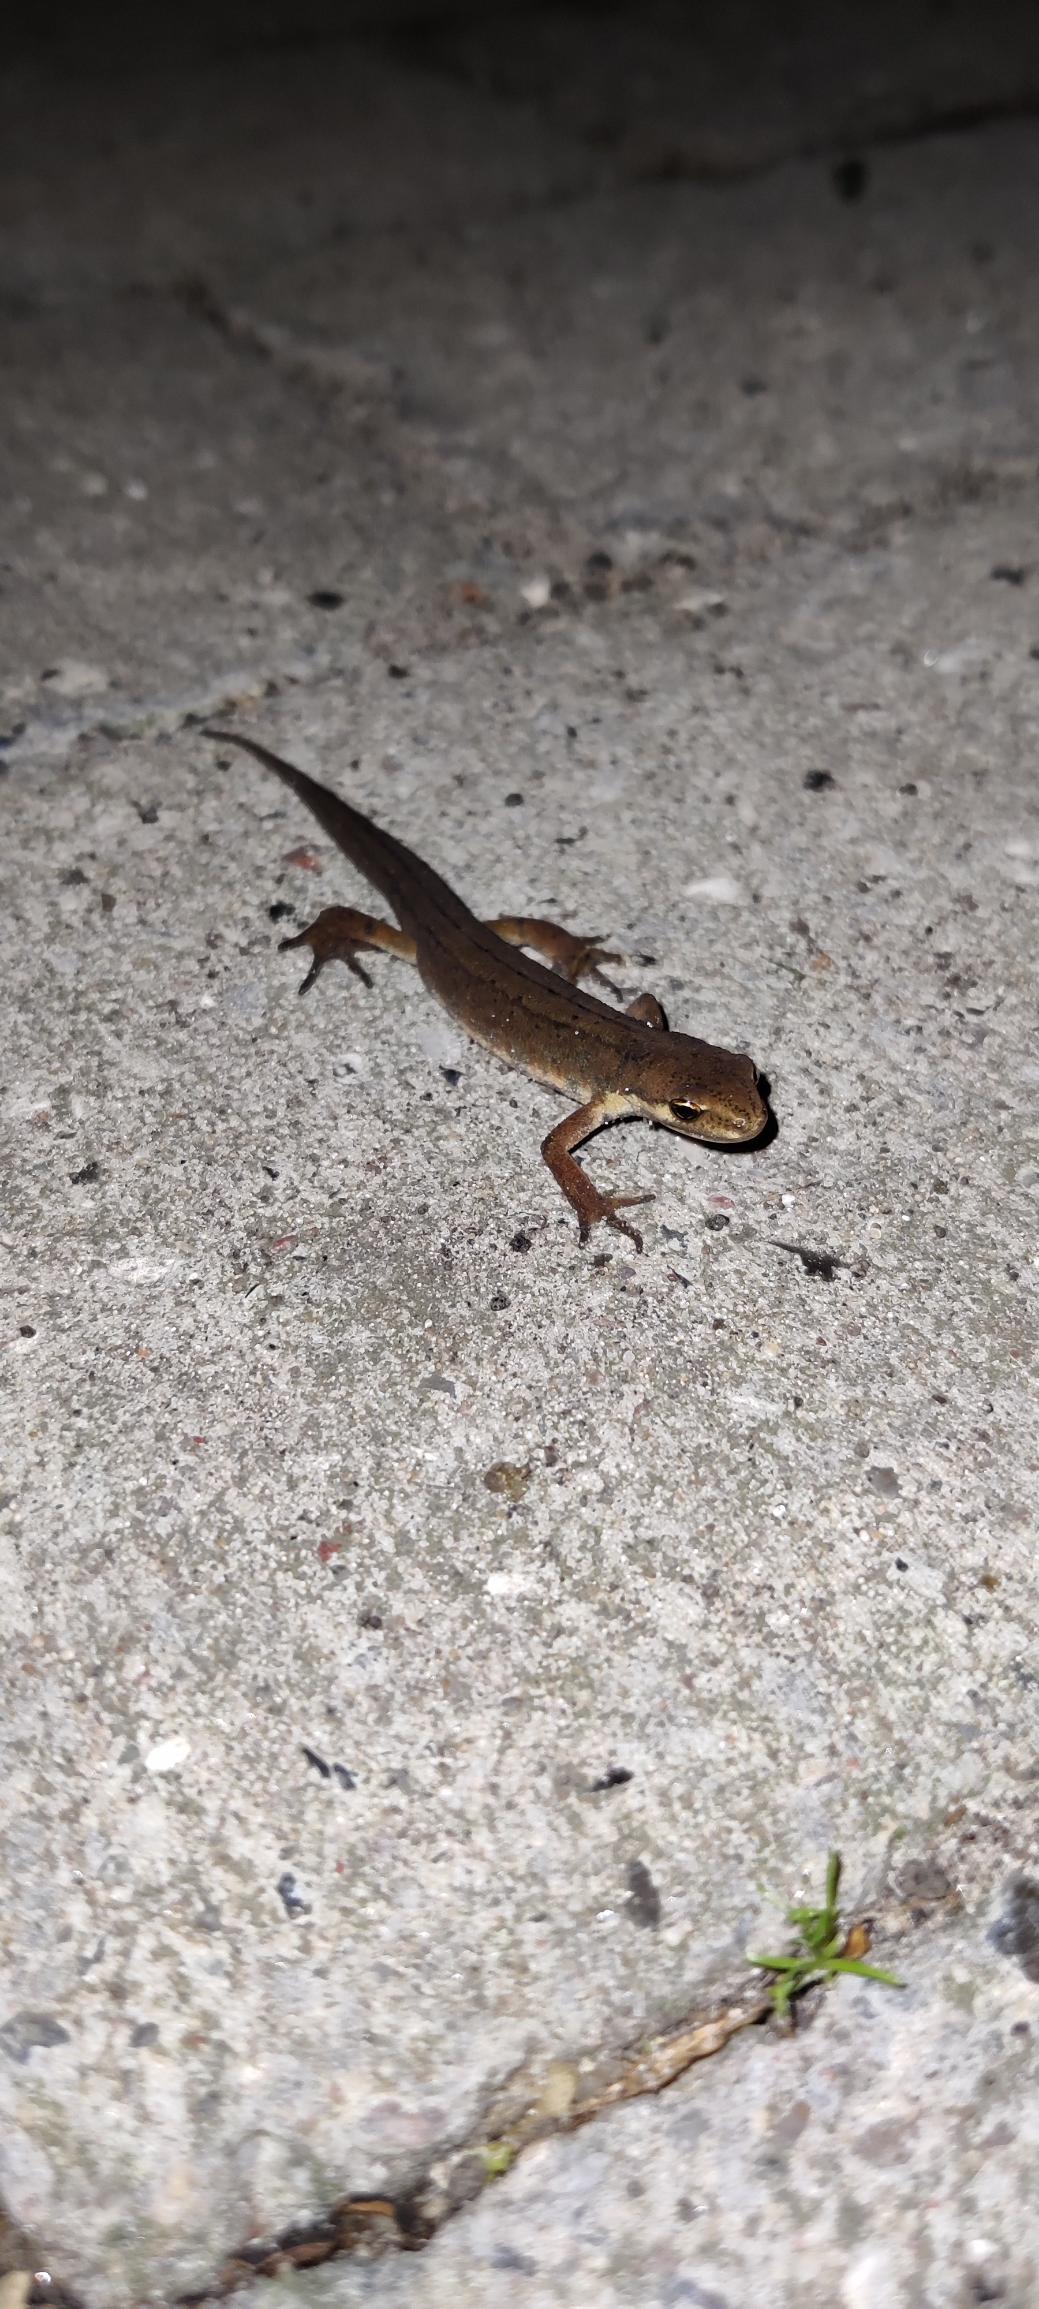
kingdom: Animalia
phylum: Chordata
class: Amphibia
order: Caudata
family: Salamandridae
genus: Lissotriton
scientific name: Lissotriton vulgaris
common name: Lille vandsalamander
